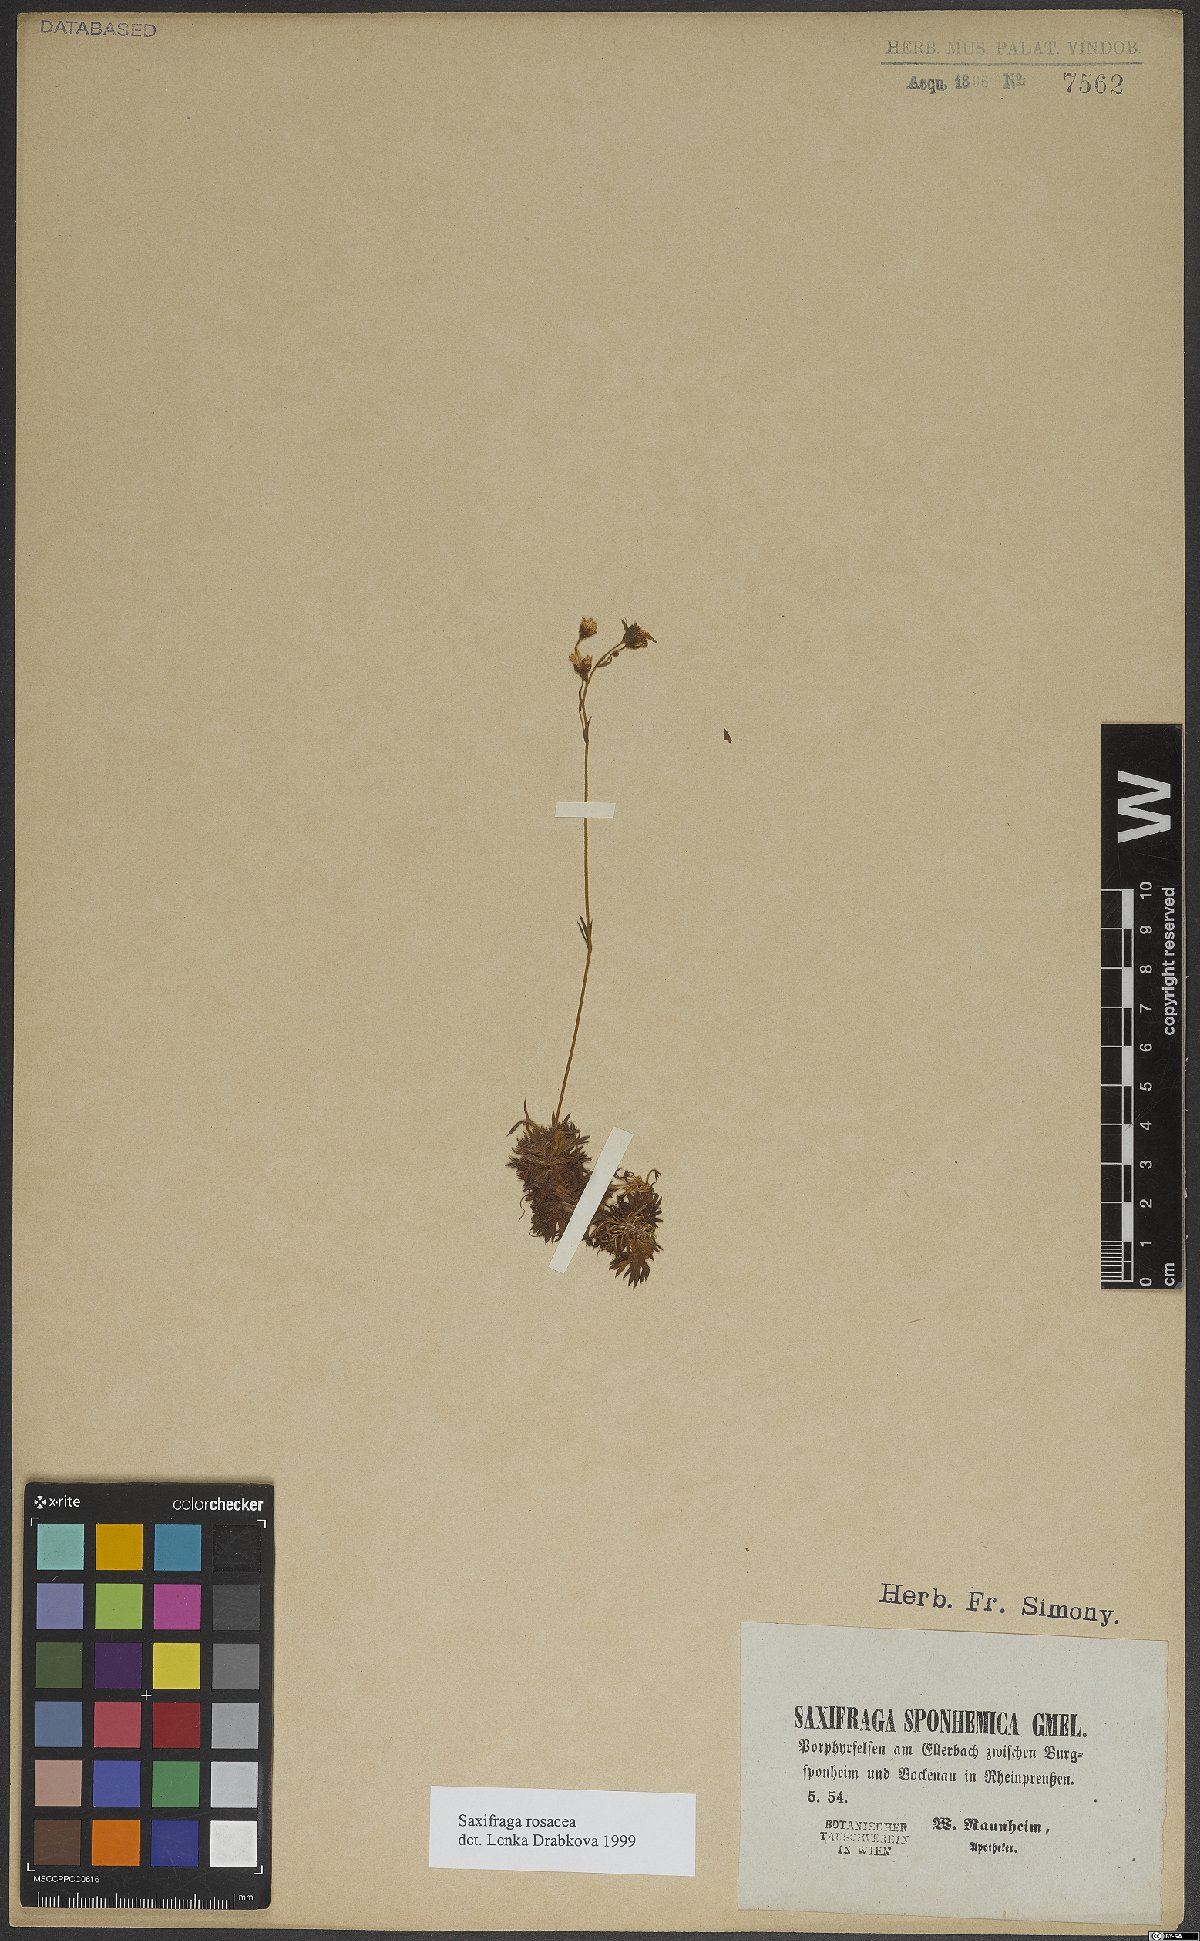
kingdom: Plantae
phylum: Tracheophyta
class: Magnoliopsida
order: Saxifragales
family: Saxifragaceae
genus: Saxifraga
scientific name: Saxifraga rosacea
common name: Irish saxifrage
